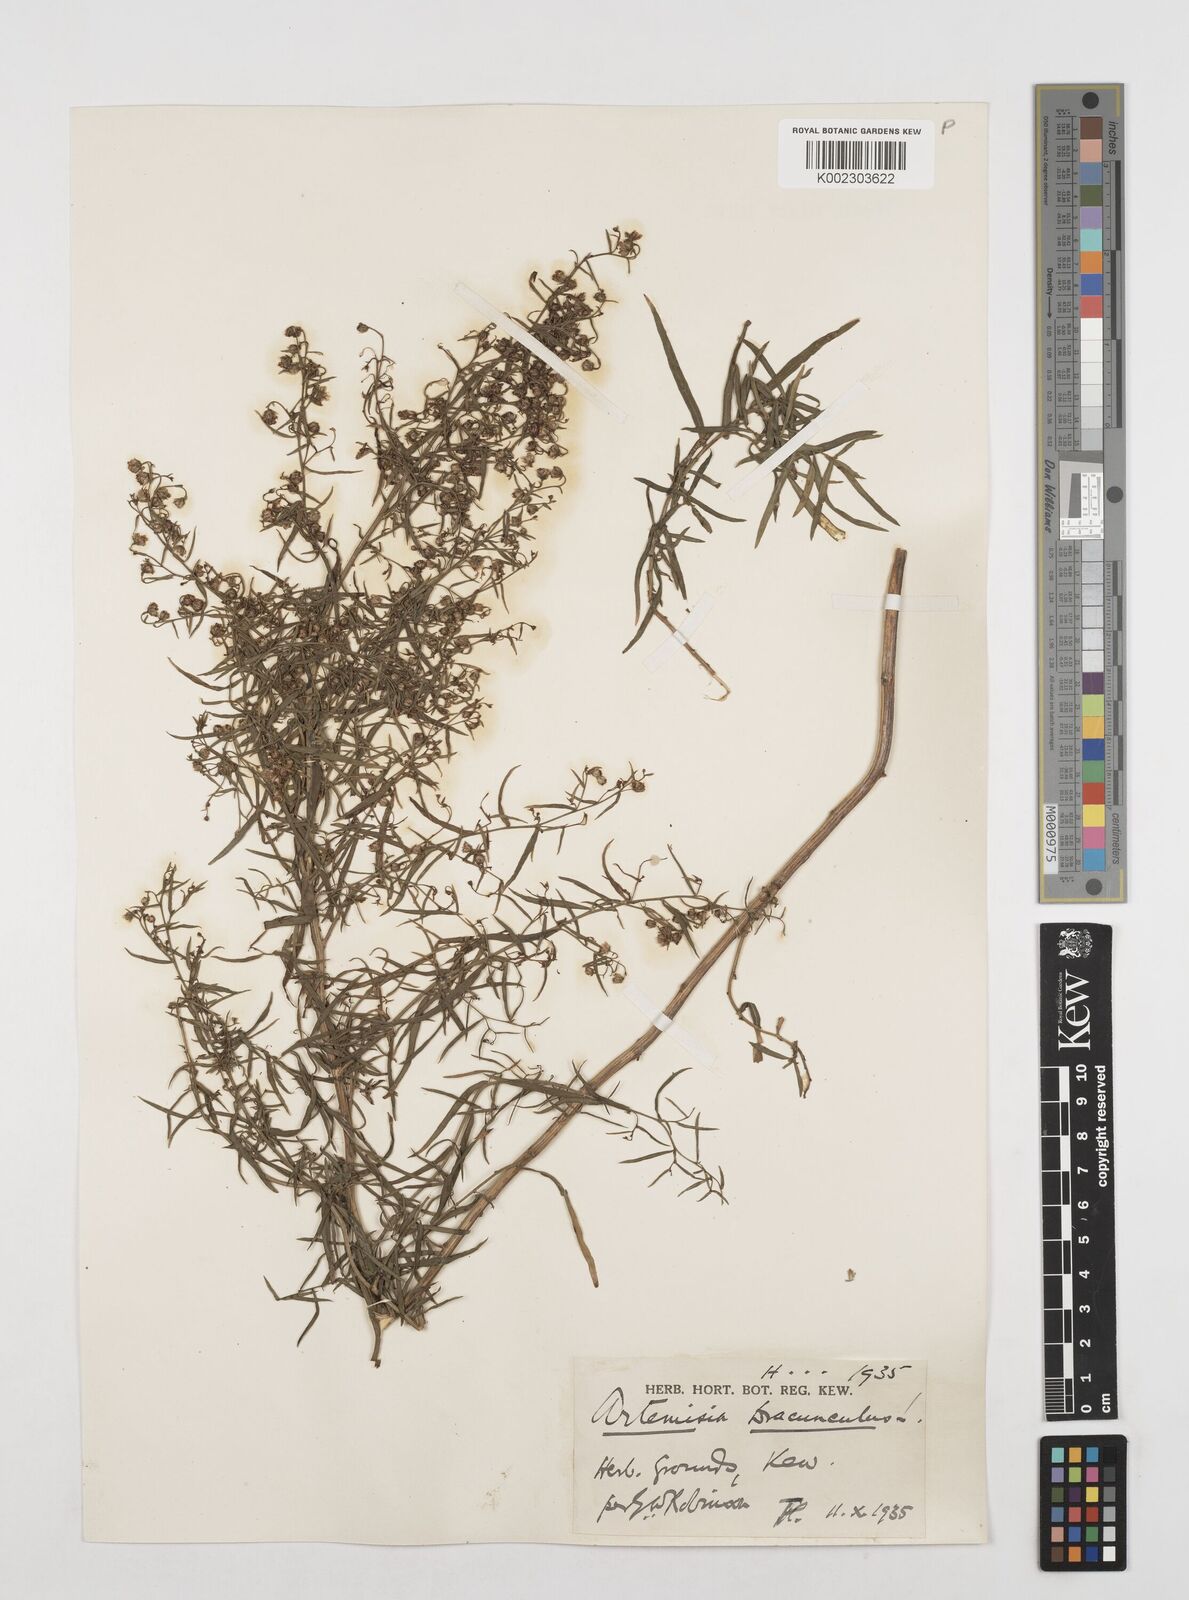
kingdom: Plantae
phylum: Tracheophyta
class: Magnoliopsida
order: Asterales
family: Asteraceae
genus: Artemisia
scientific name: Artemisia dracunculus
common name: Tarragon
